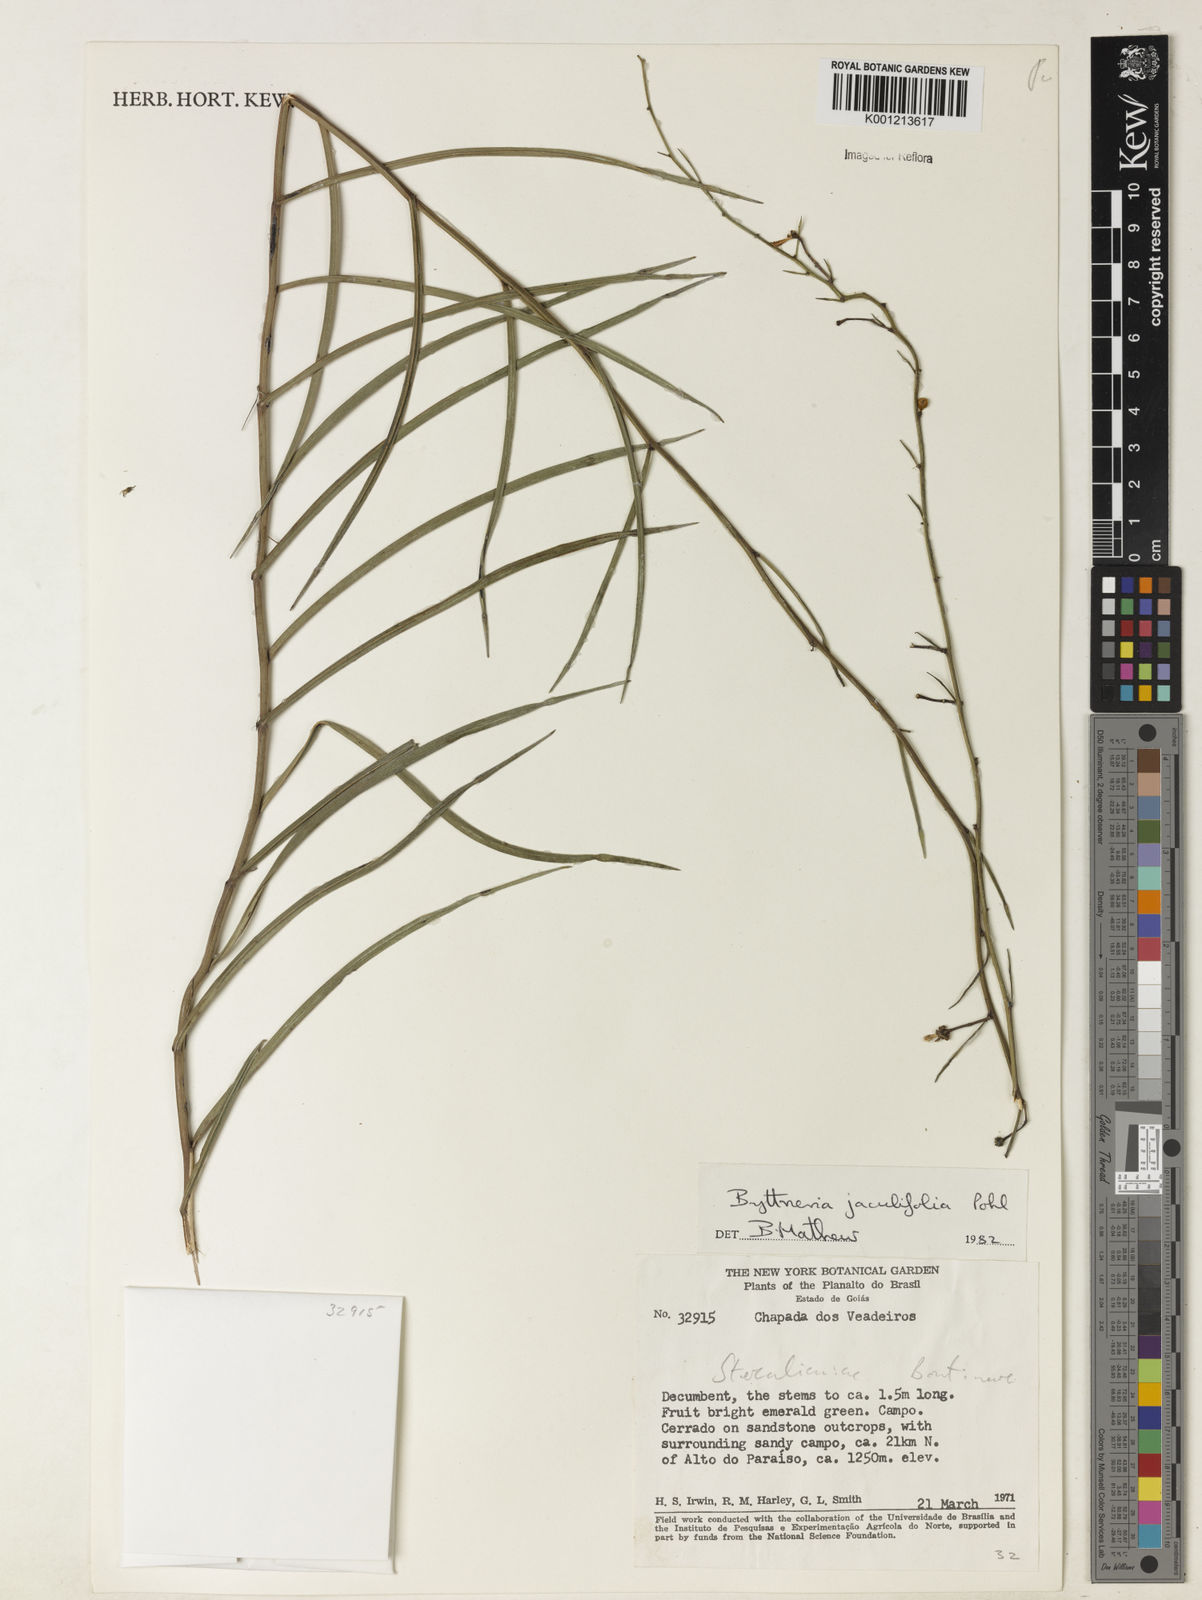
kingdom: Plantae
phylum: Tracheophyta
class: Magnoliopsida
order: Malvales
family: Malvaceae
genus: Byttneria
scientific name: Byttneria jaculifolia
